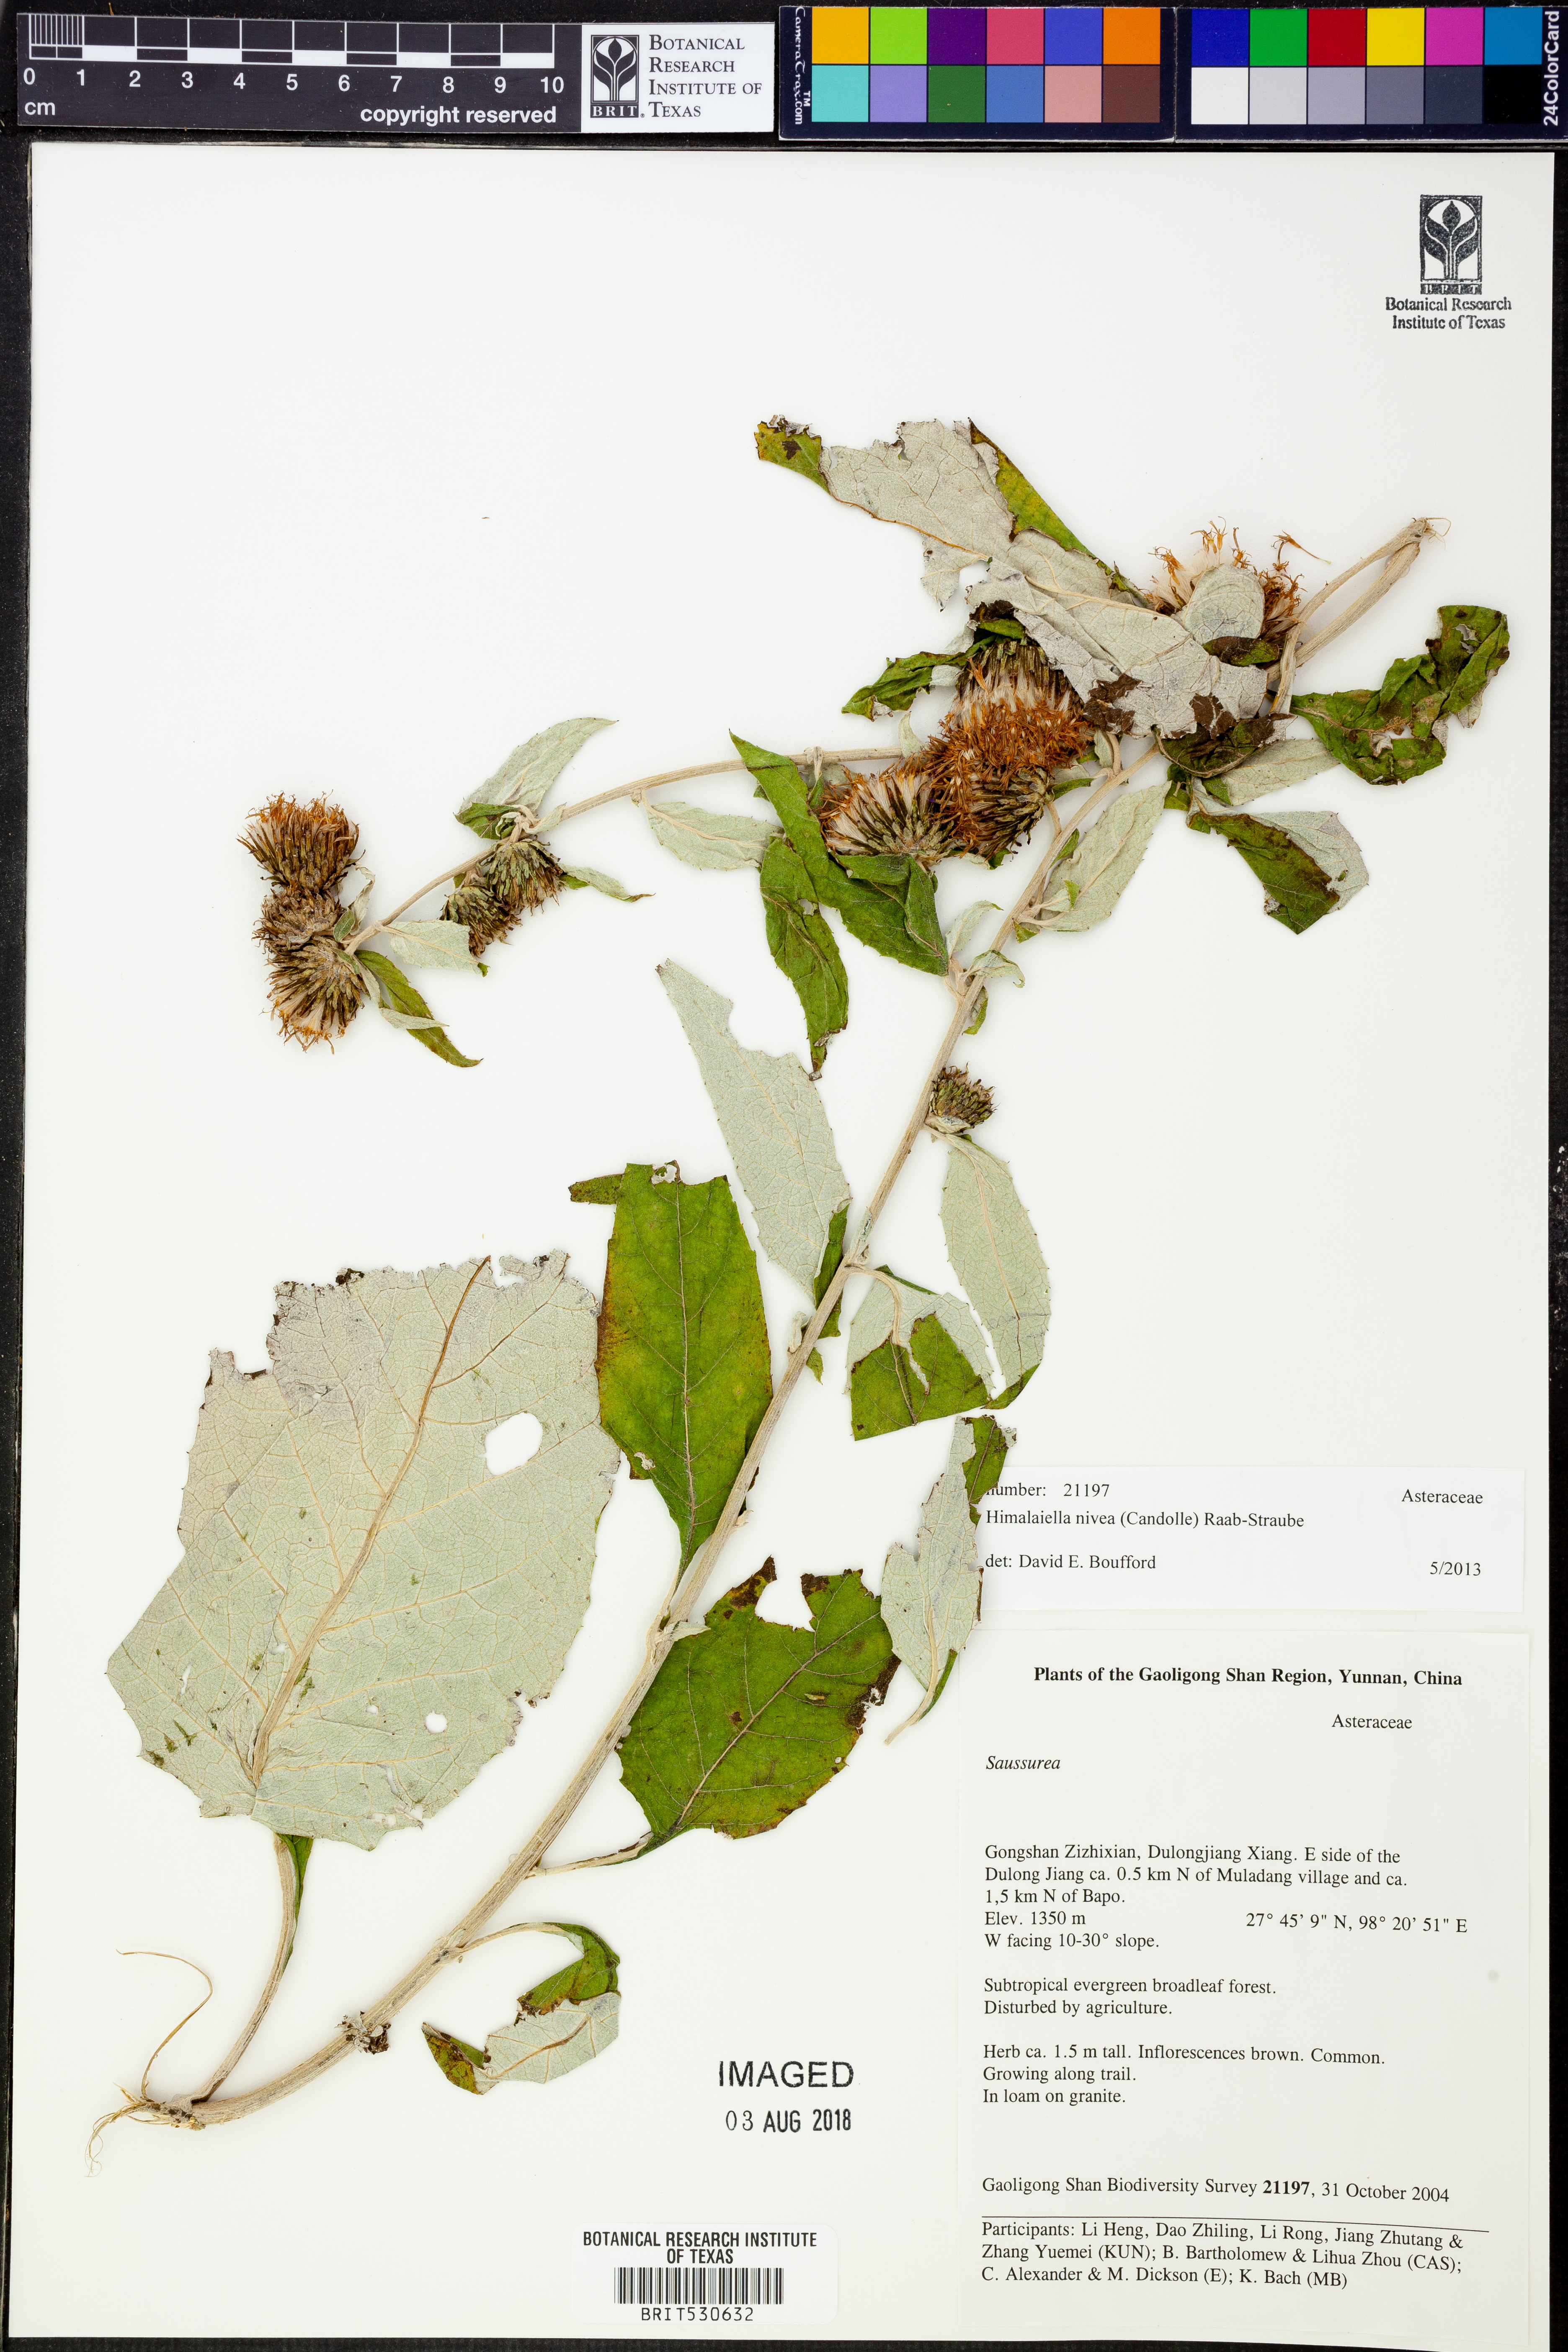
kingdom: Plantae
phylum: Tracheophyta
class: Magnoliopsida
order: Asterales
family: Asteraceae
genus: Jurinea
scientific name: Jurinea crispa
